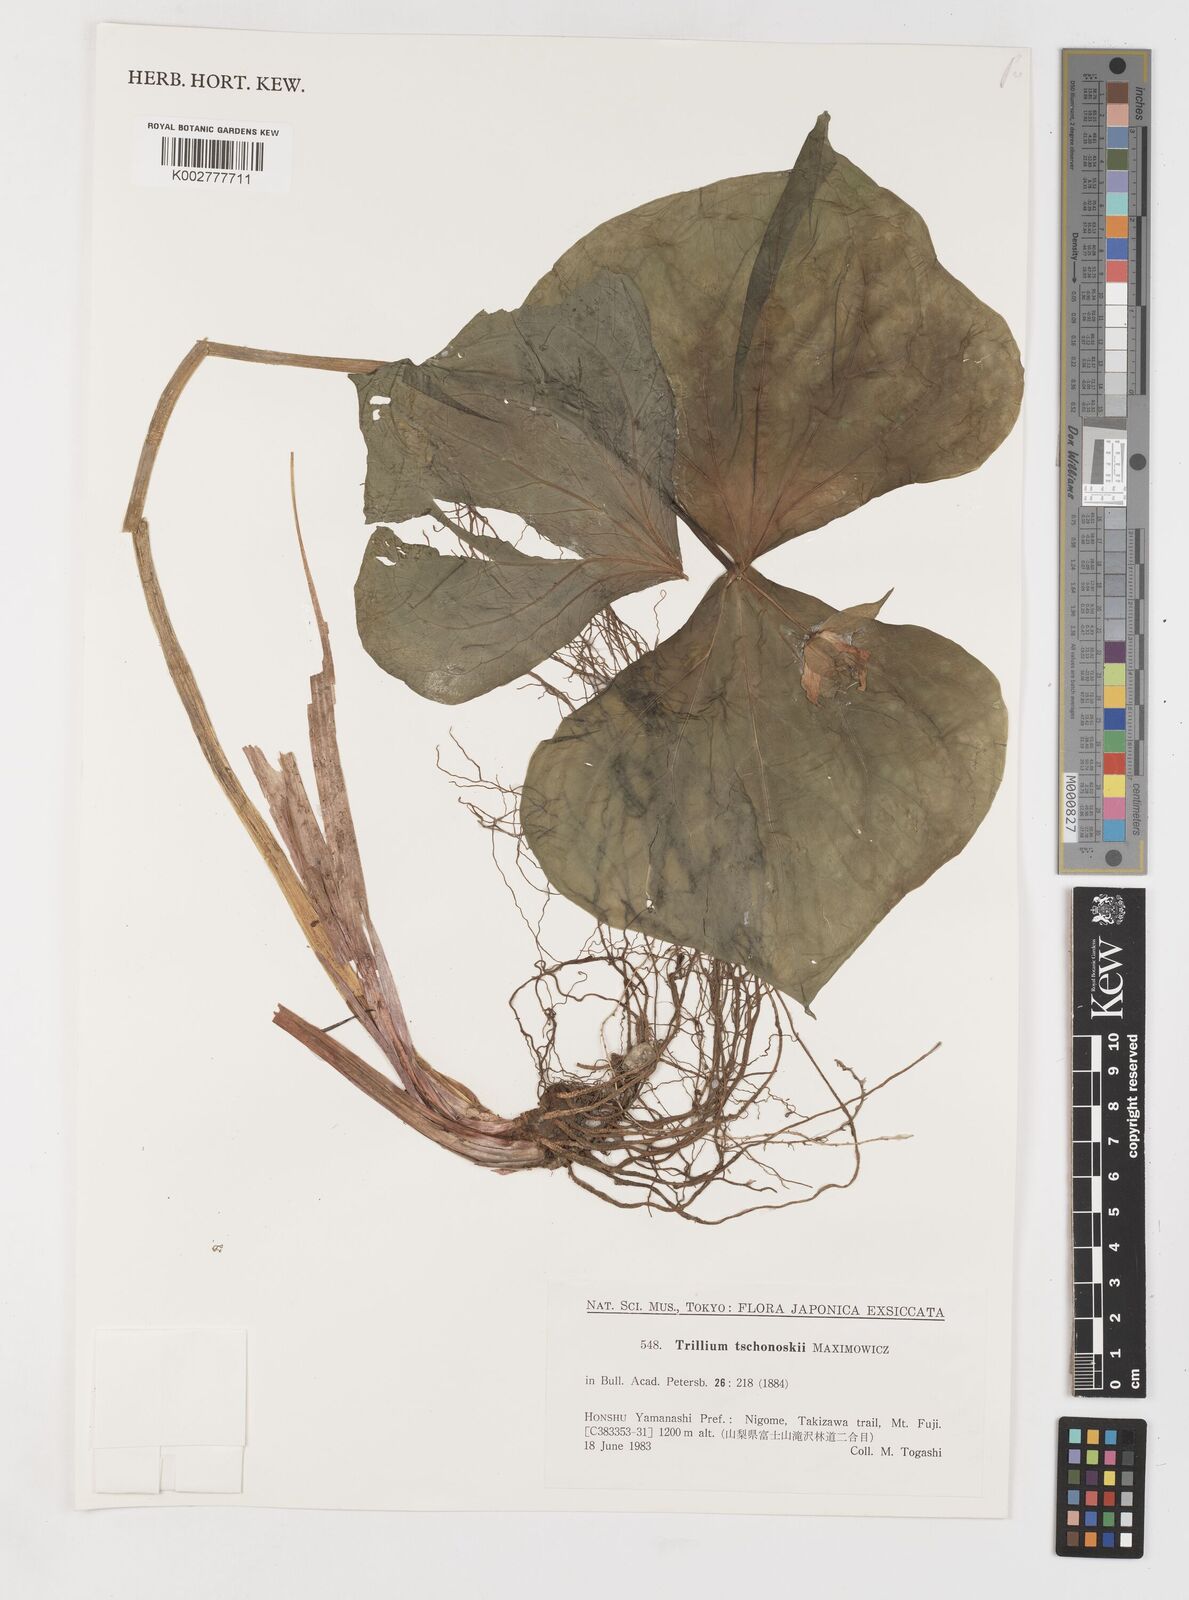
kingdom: Plantae
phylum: Tracheophyta
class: Liliopsida
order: Liliales
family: Melanthiaceae
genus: Trillium
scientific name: Trillium tschonoskii
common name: A pearl on head
